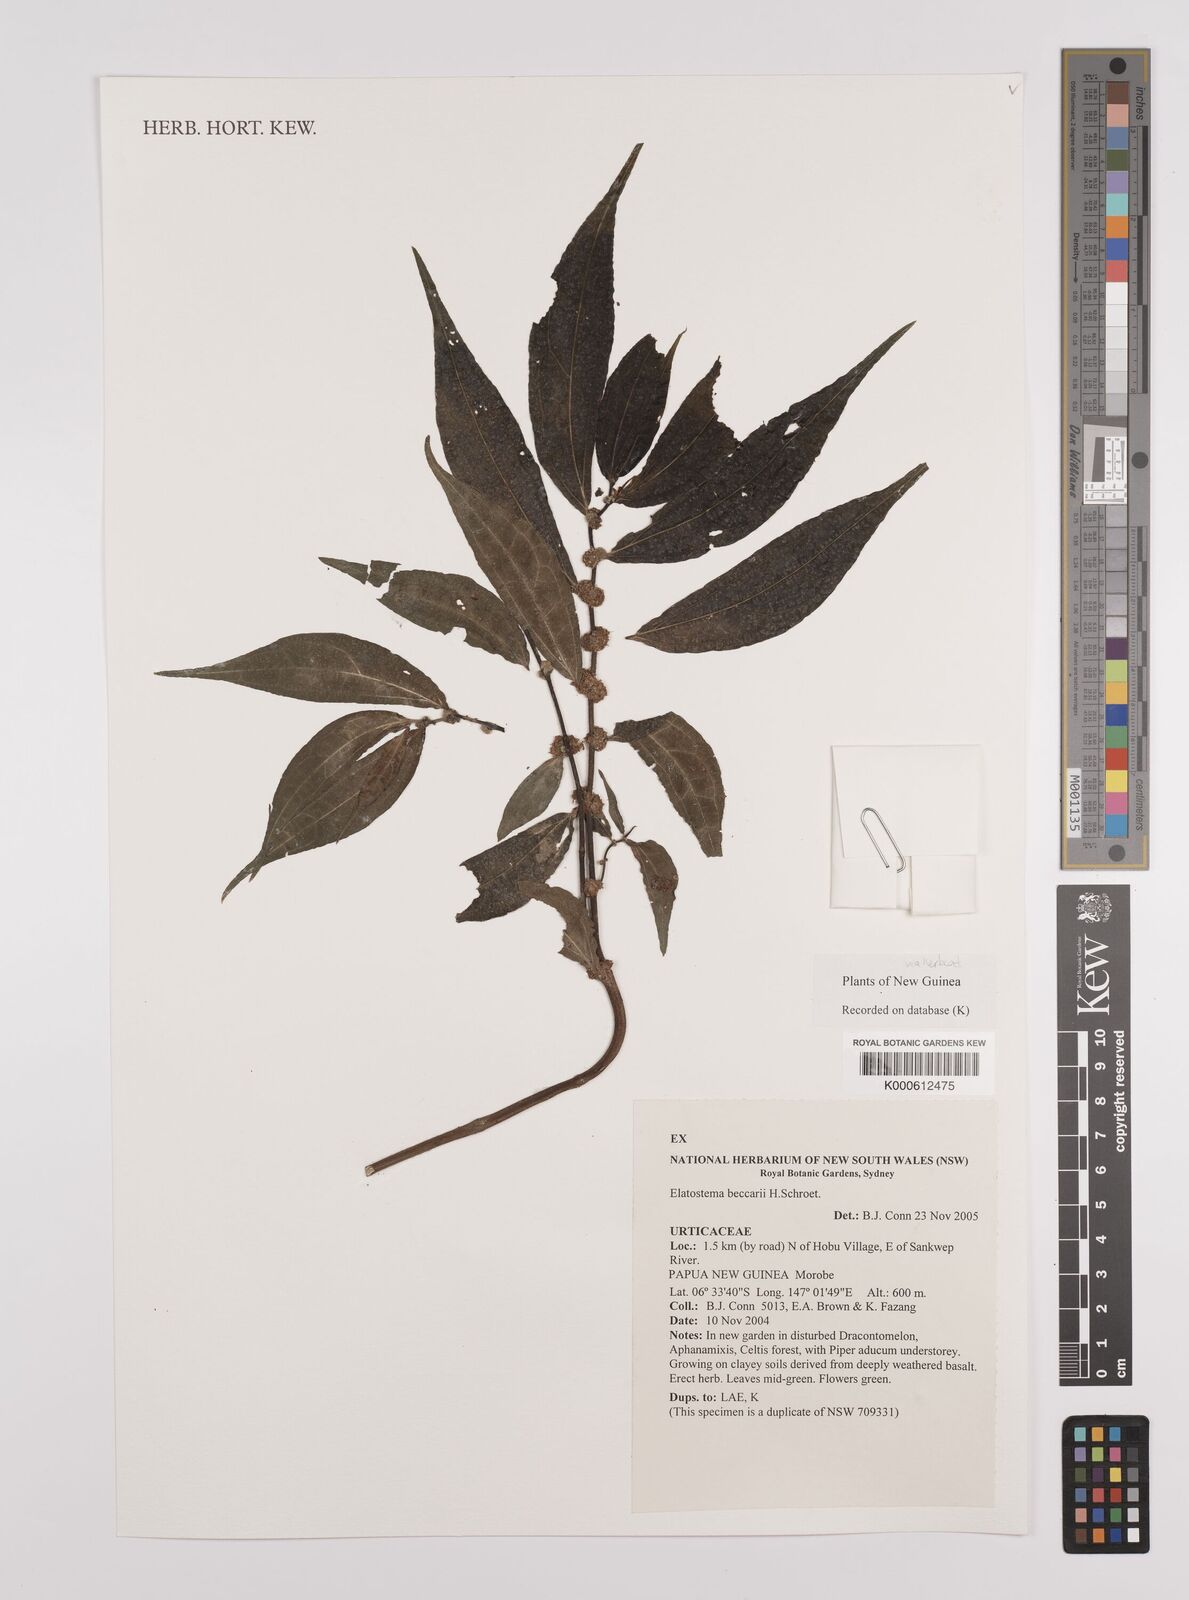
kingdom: Plantae
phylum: Tracheophyta
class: Magnoliopsida
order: Rosales
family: Urticaceae
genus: Elatostema
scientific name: Elatostema beccarii
